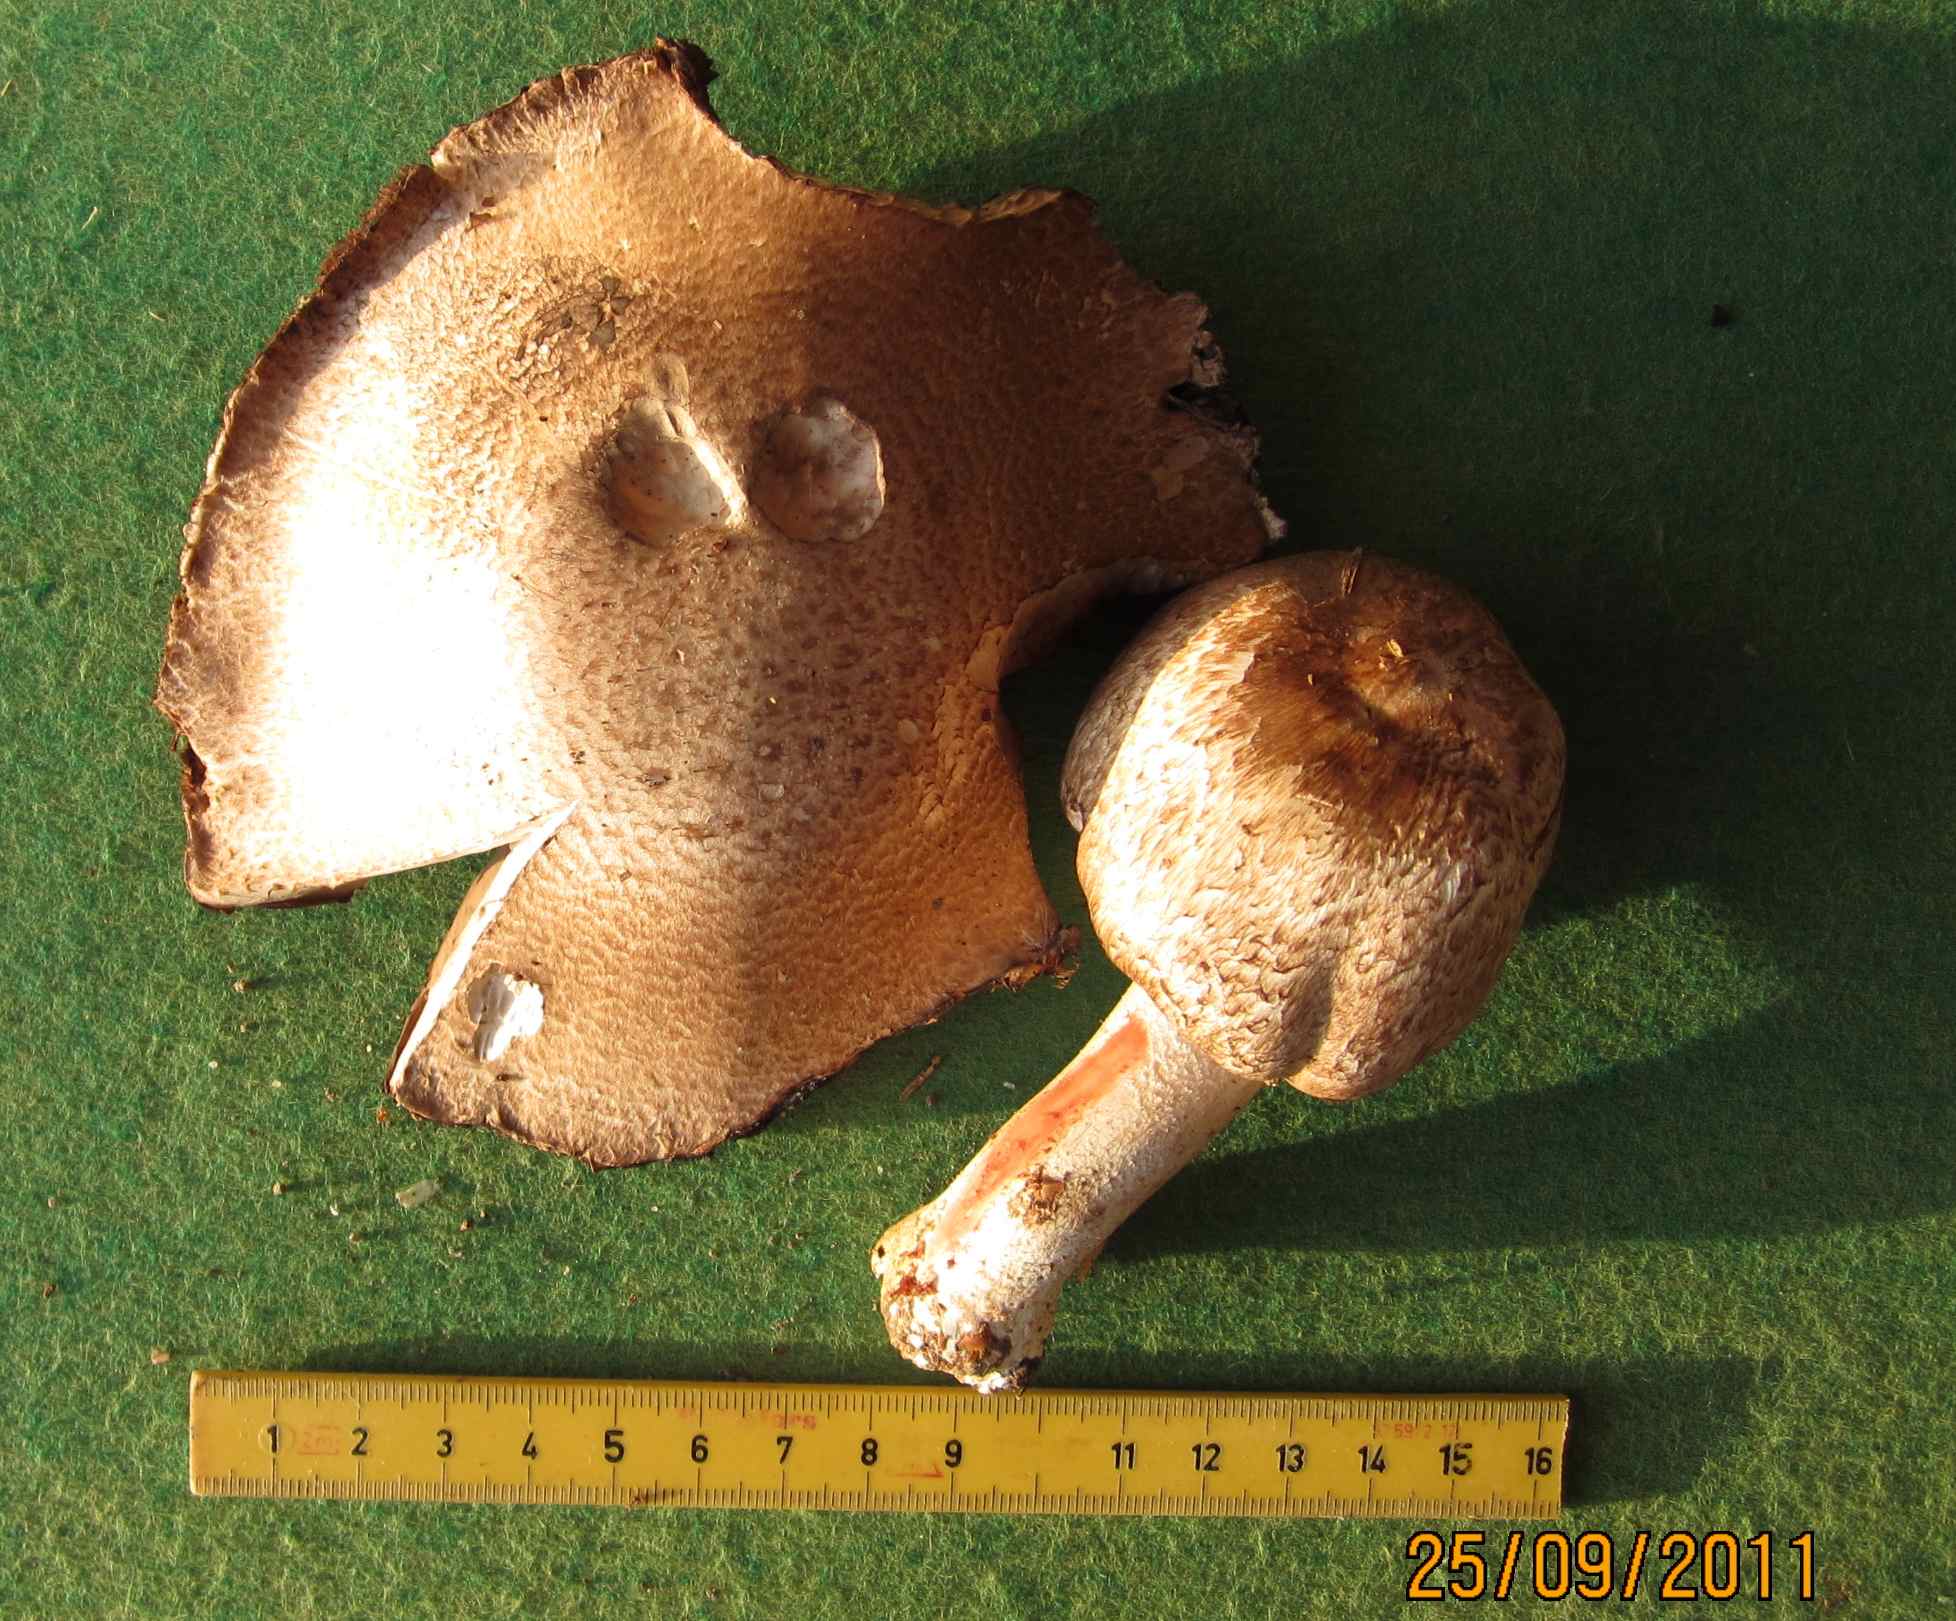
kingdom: Fungi
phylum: Basidiomycota
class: Agaricomycetes
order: Agaricales
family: Agaricaceae
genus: Agaricus
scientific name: Agaricus sylvaticus
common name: lille blod-champignon
